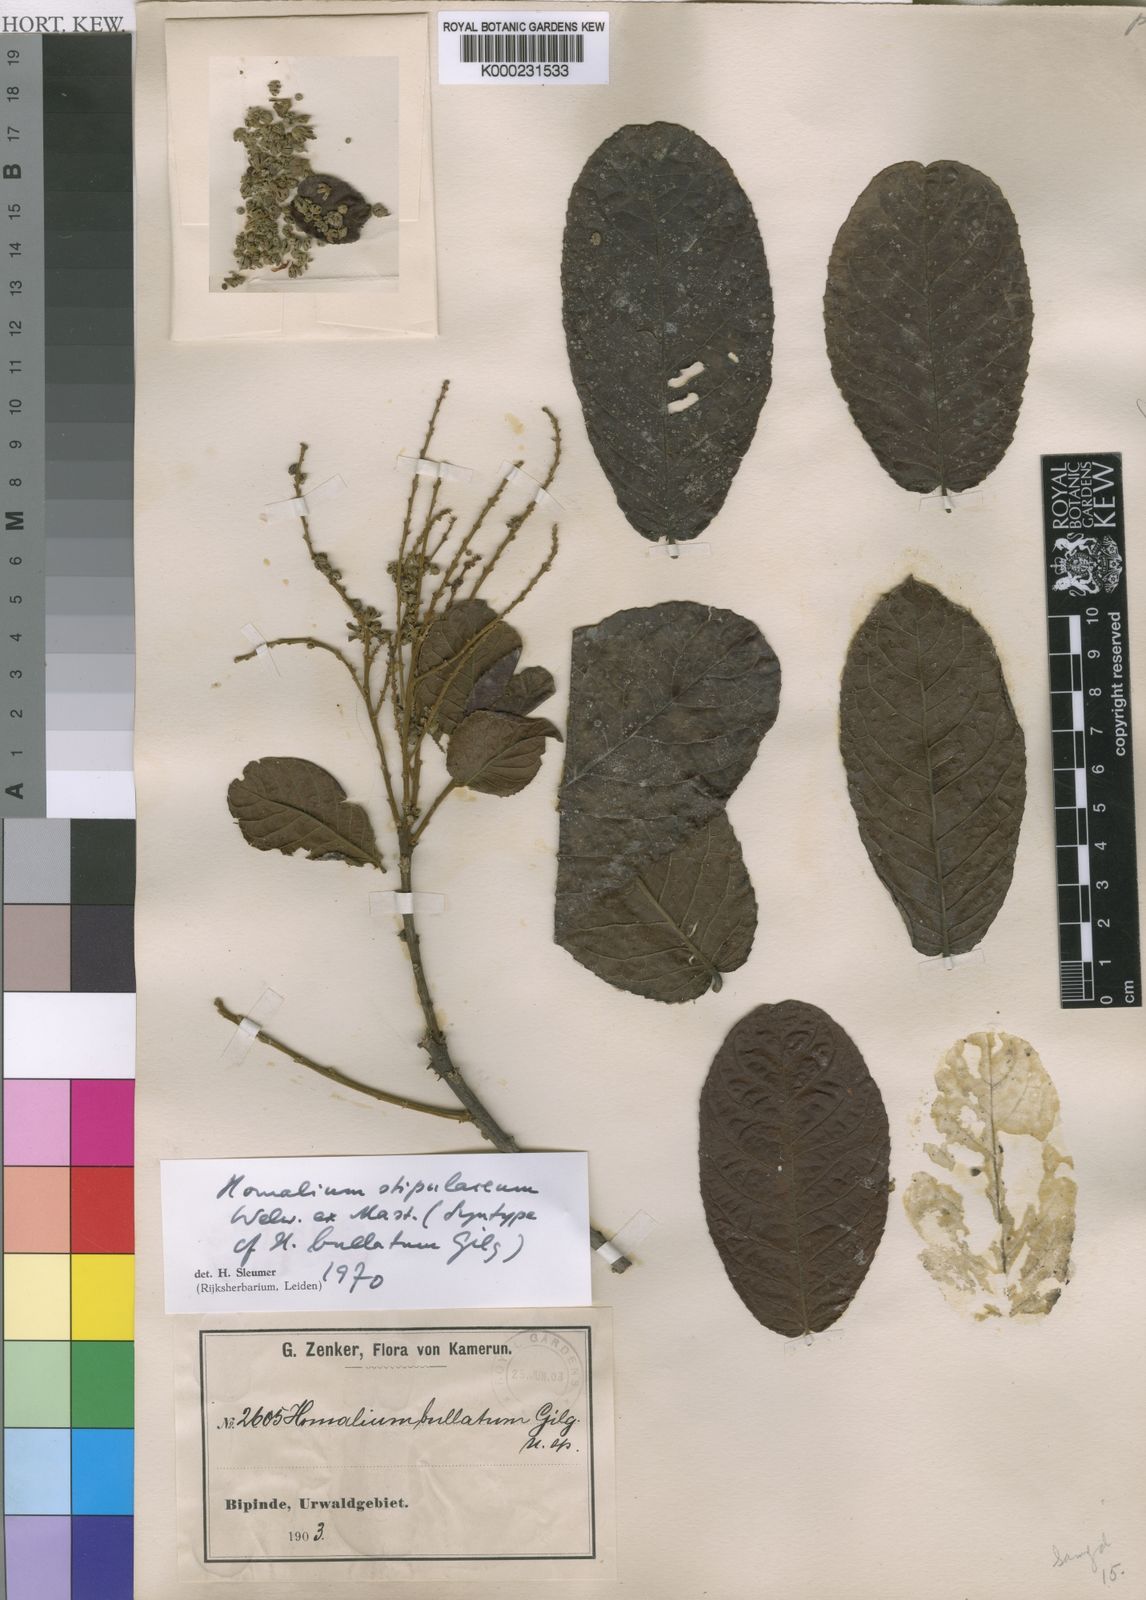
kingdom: Plantae
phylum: Tracheophyta
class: Magnoliopsida
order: Malpighiales
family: Salicaceae
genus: Homalium
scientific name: Homalium stipulaceum
